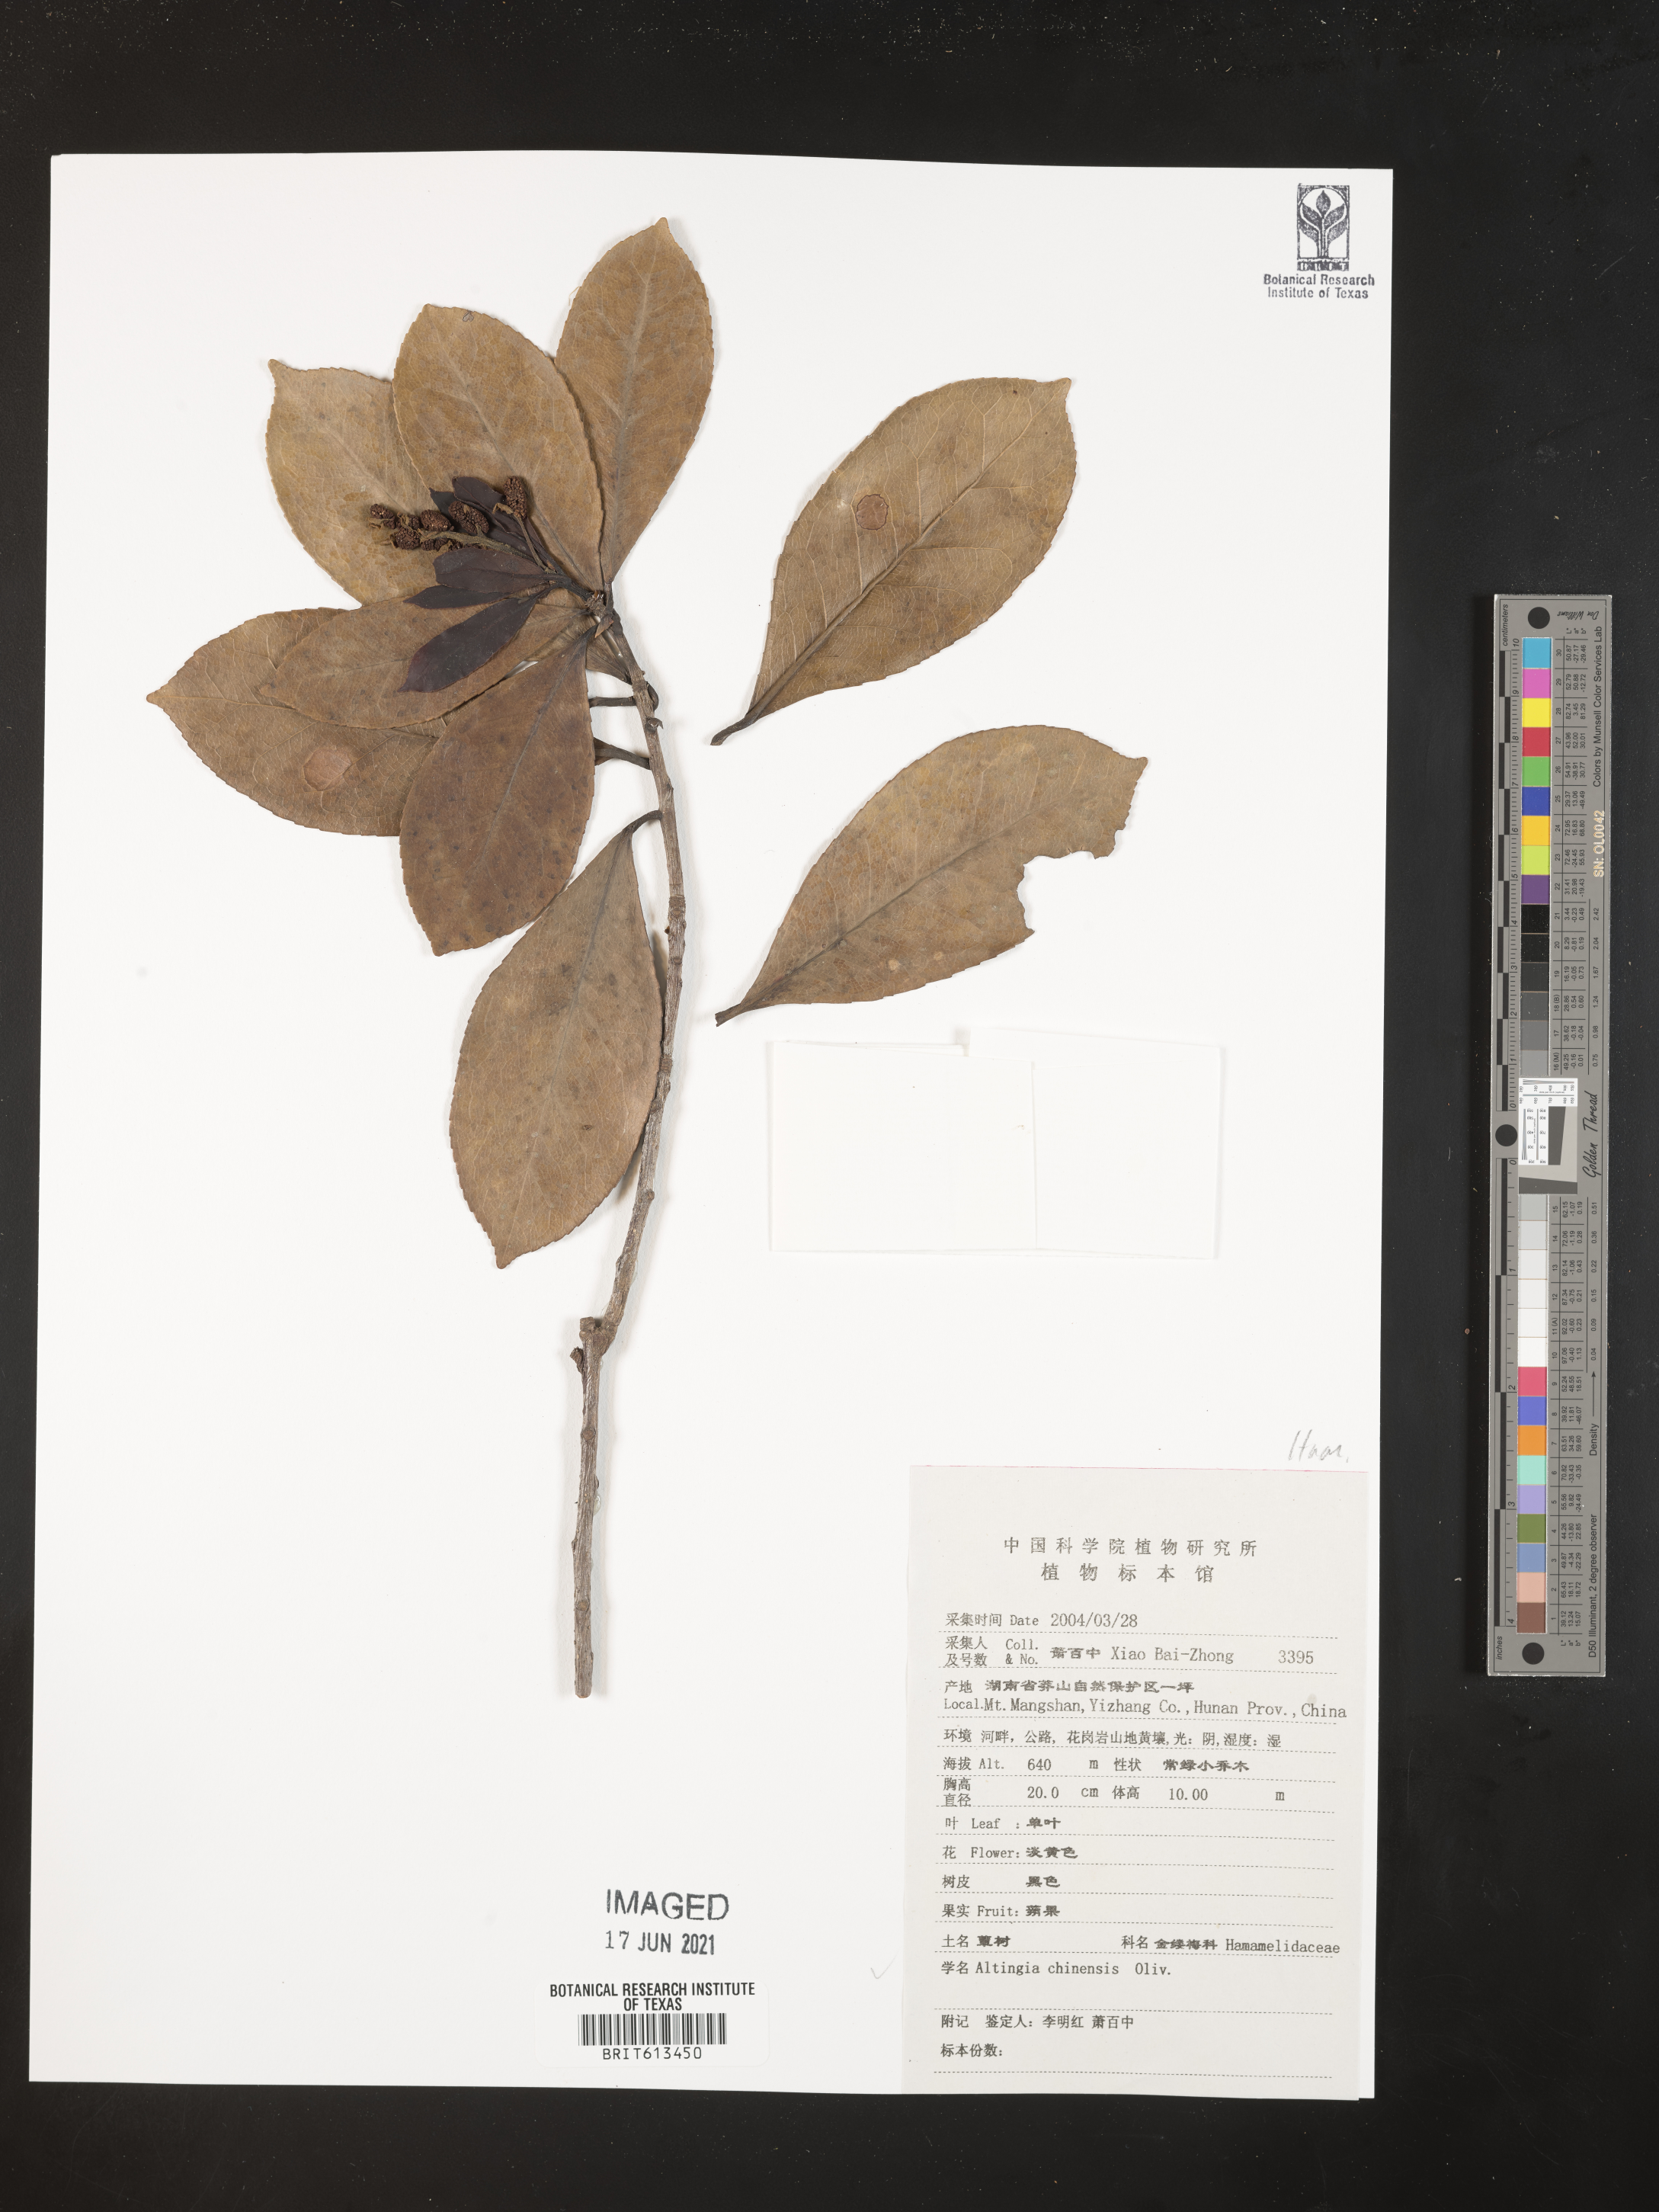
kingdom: Plantae
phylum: Tracheophyta
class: Magnoliopsida
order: Saxifragales
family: Altingiaceae
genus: Liquidambar
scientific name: Liquidambar chinensis
